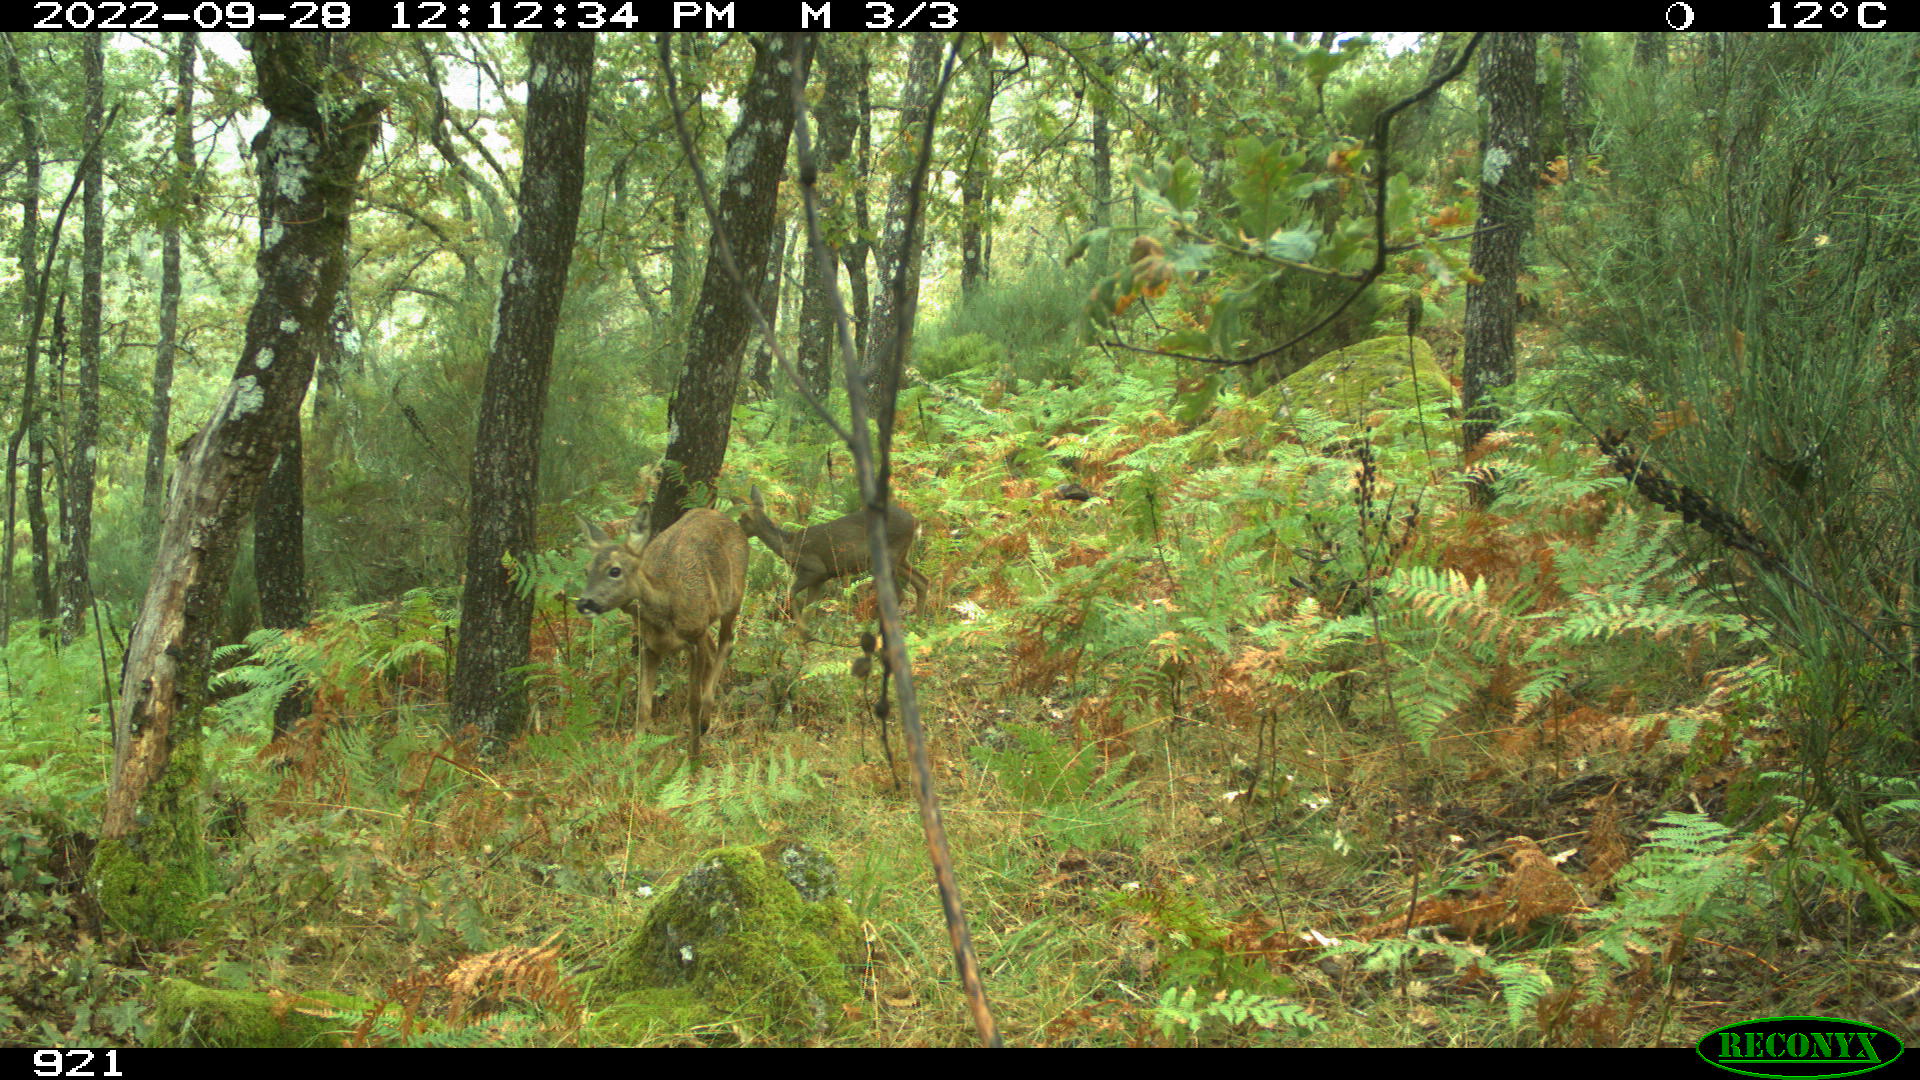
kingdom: Animalia
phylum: Chordata
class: Mammalia
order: Artiodactyla
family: Cervidae
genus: Capreolus
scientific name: Capreolus capreolus
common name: Western roe deer
